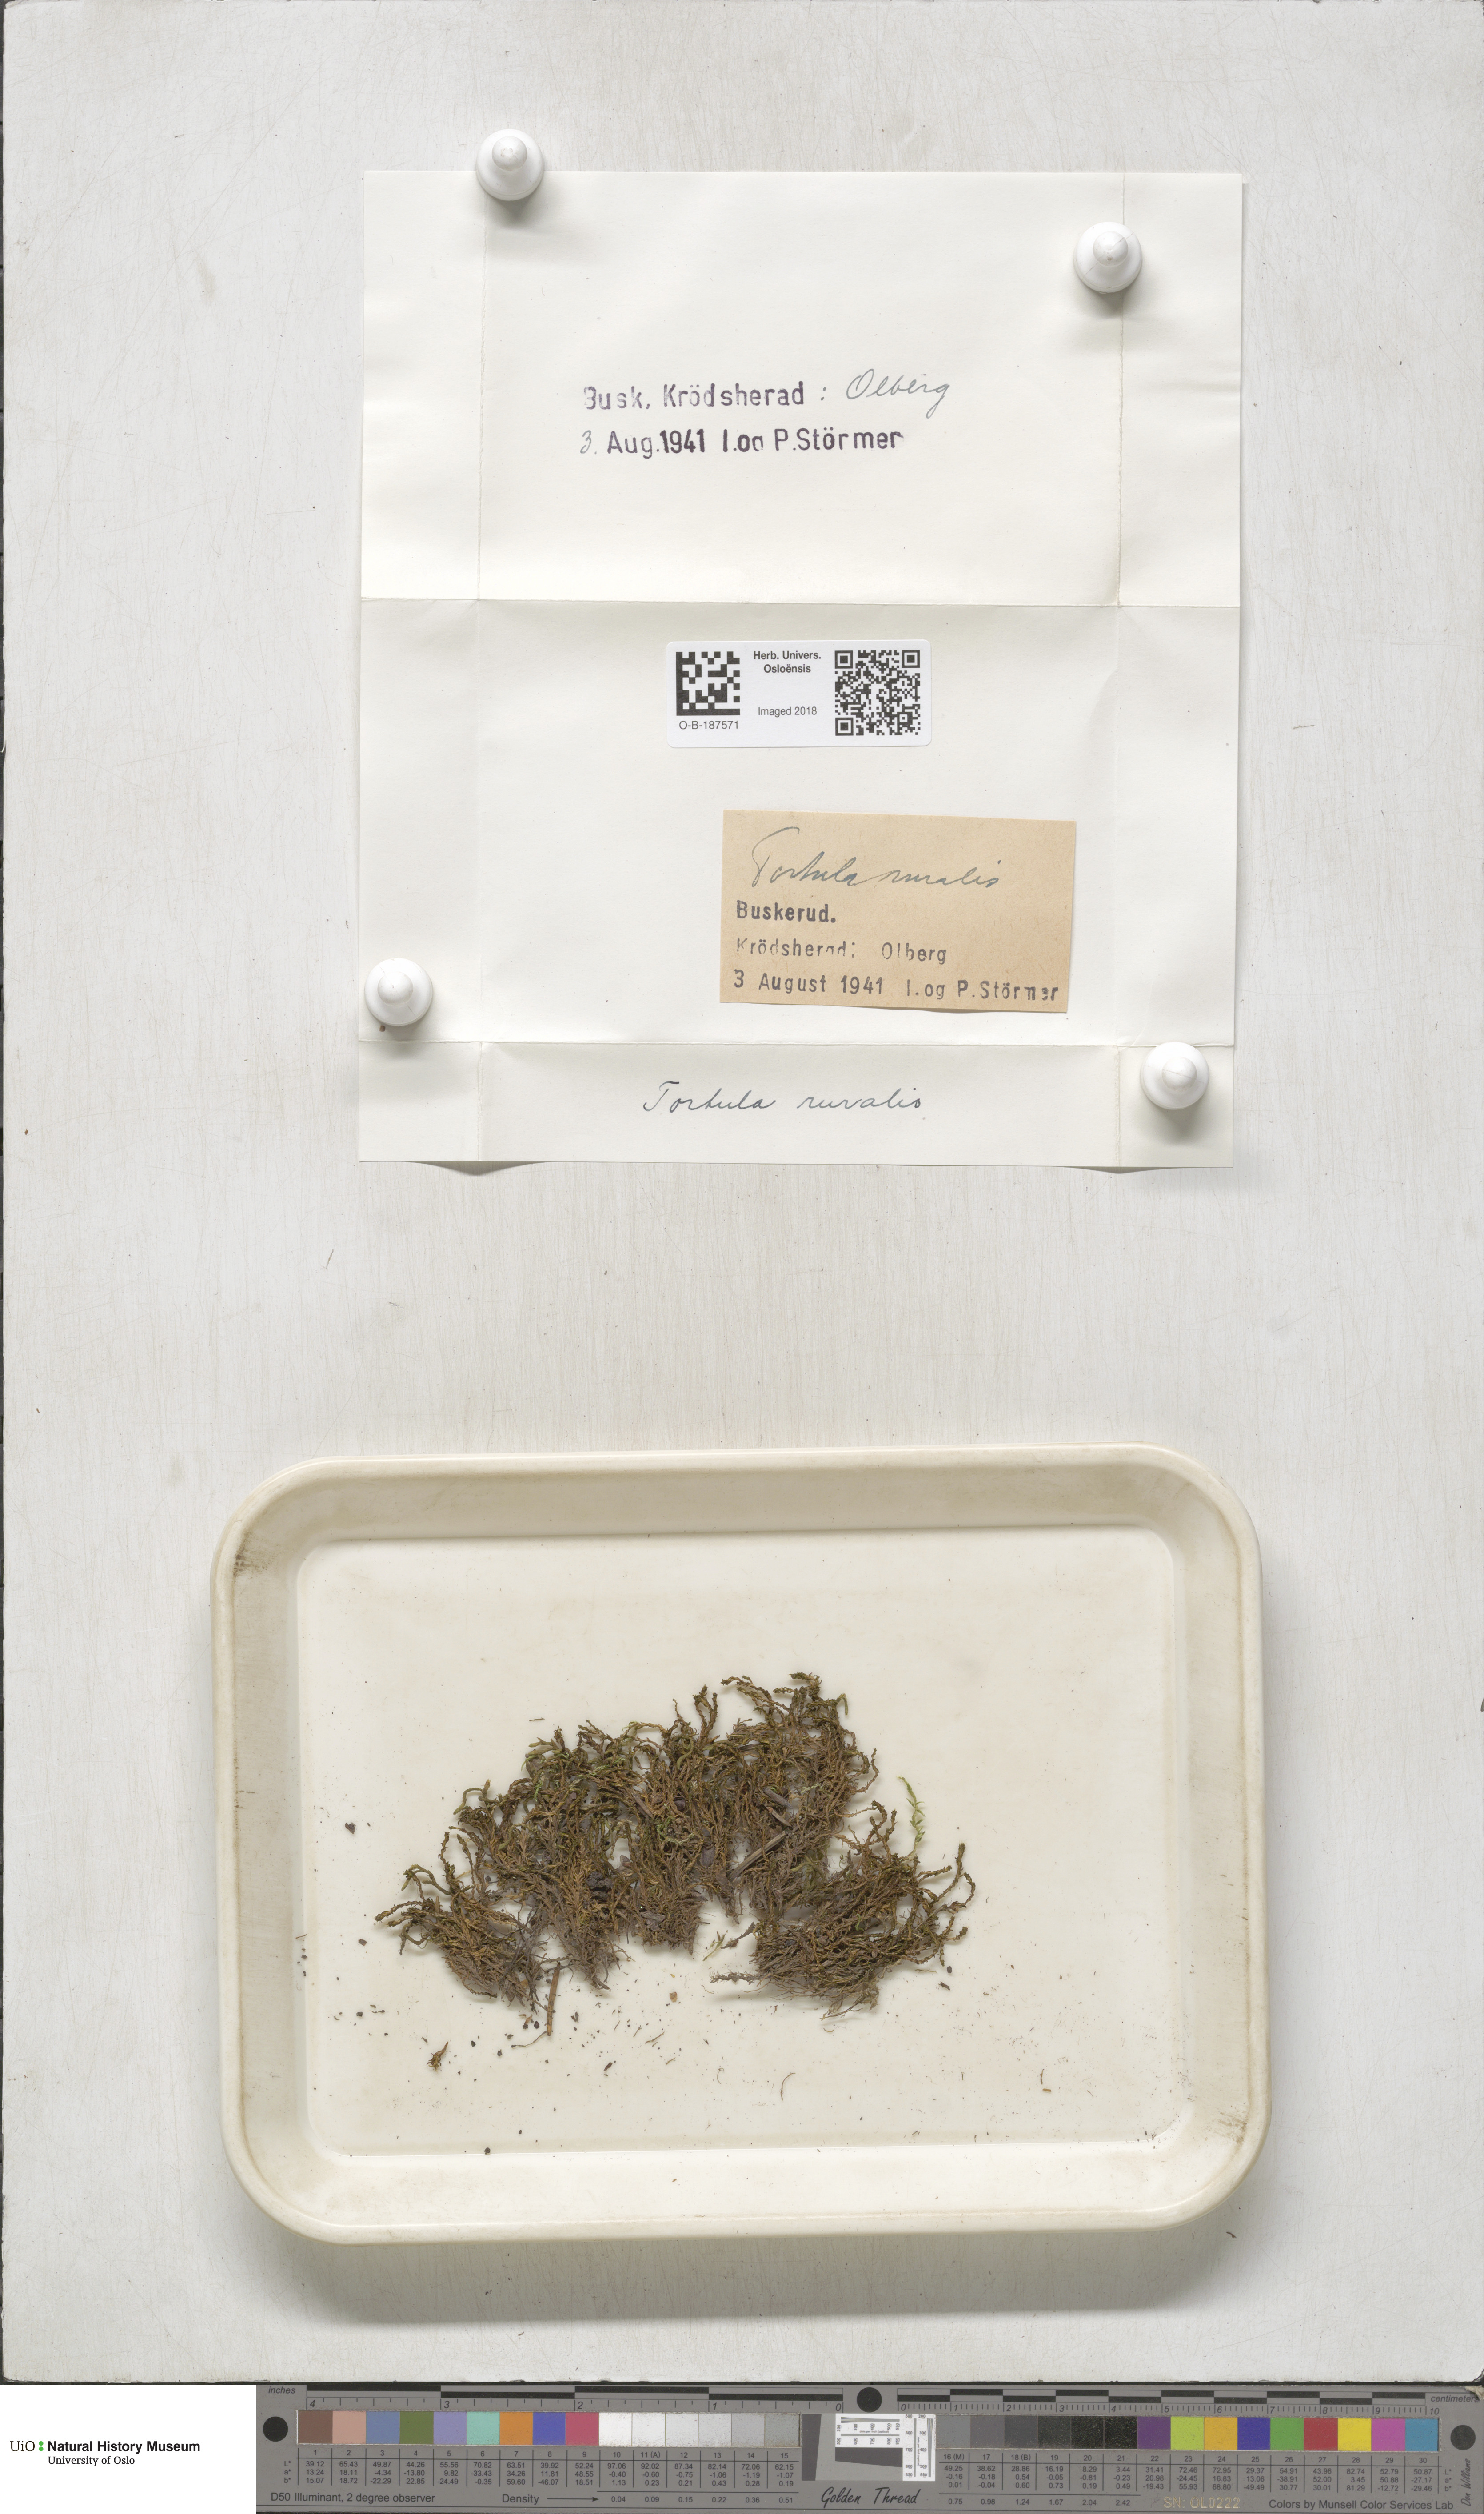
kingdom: Plantae
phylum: Bryophyta
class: Bryopsida
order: Pottiales
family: Pottiaceae
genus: Syntrichia
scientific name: Syntrichia ruralis
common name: Sidewalk screw moss
